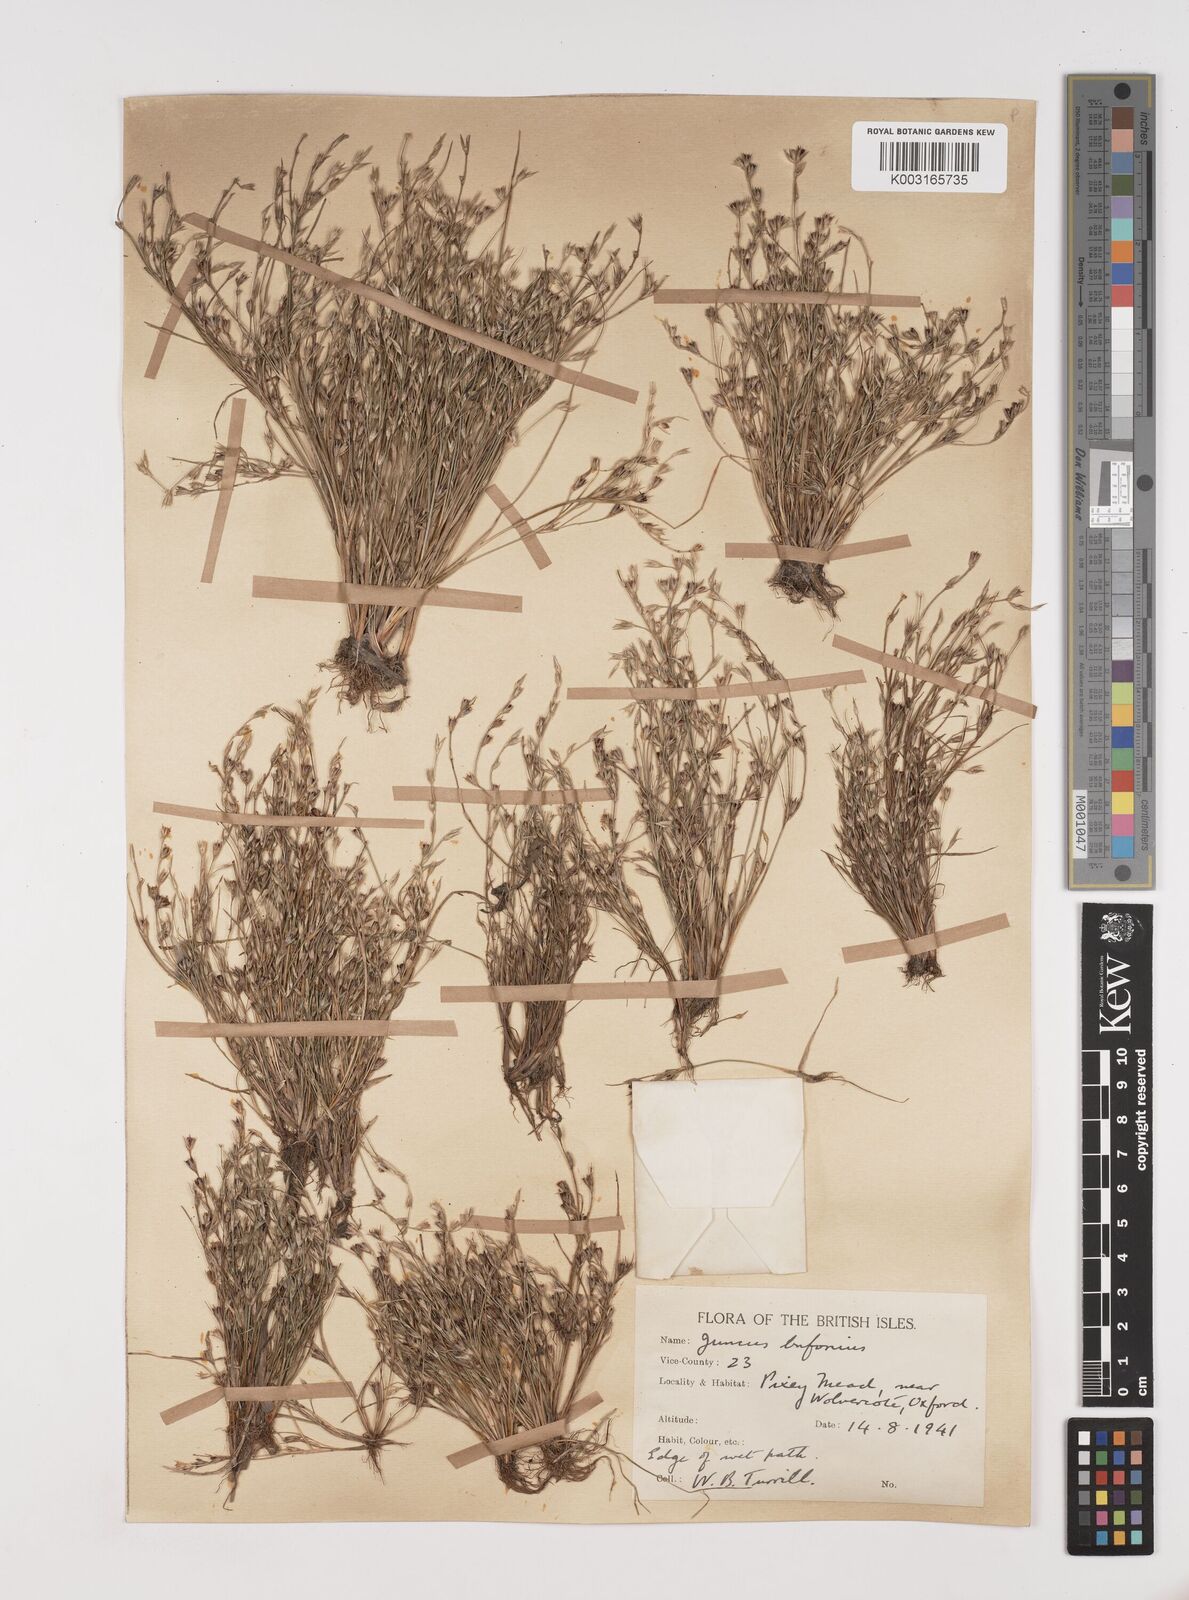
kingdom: Plantae
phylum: Tracheophyta
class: Liliopsida
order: Poales
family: Juncaceae
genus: Juncus
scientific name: Juncus bufonius
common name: Toad rush
